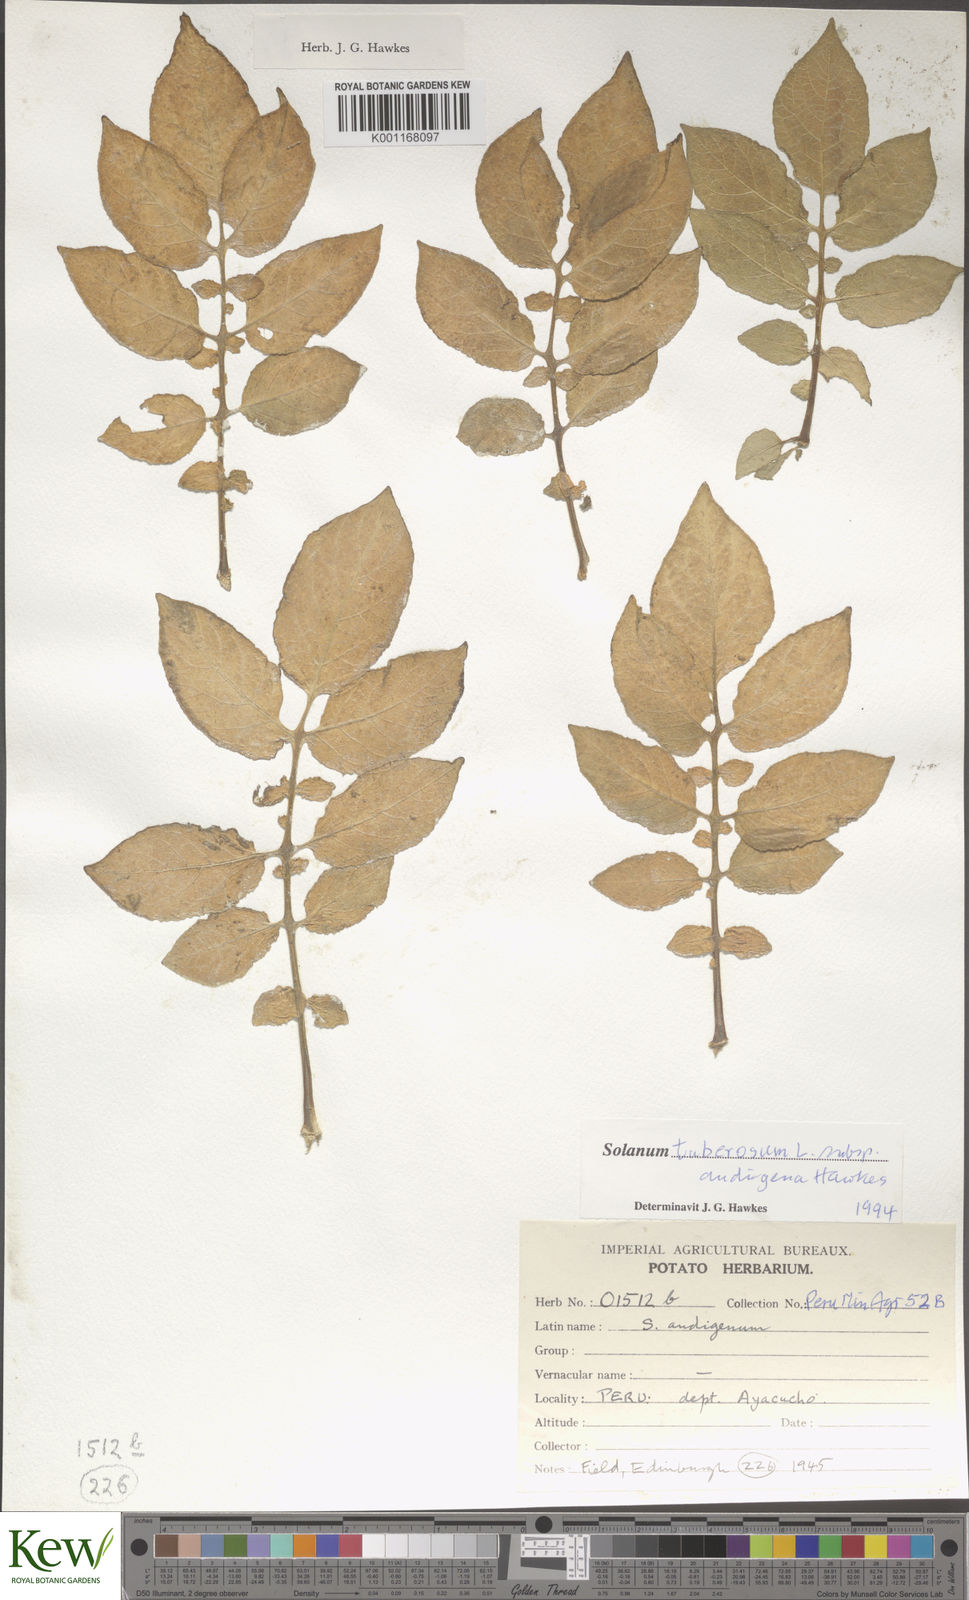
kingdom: Plantae
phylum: Tracheophyta
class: Magnoliopsida
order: Solanales
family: Solanaceae
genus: Solanum
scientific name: Solanum tuberosum
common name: Potato
